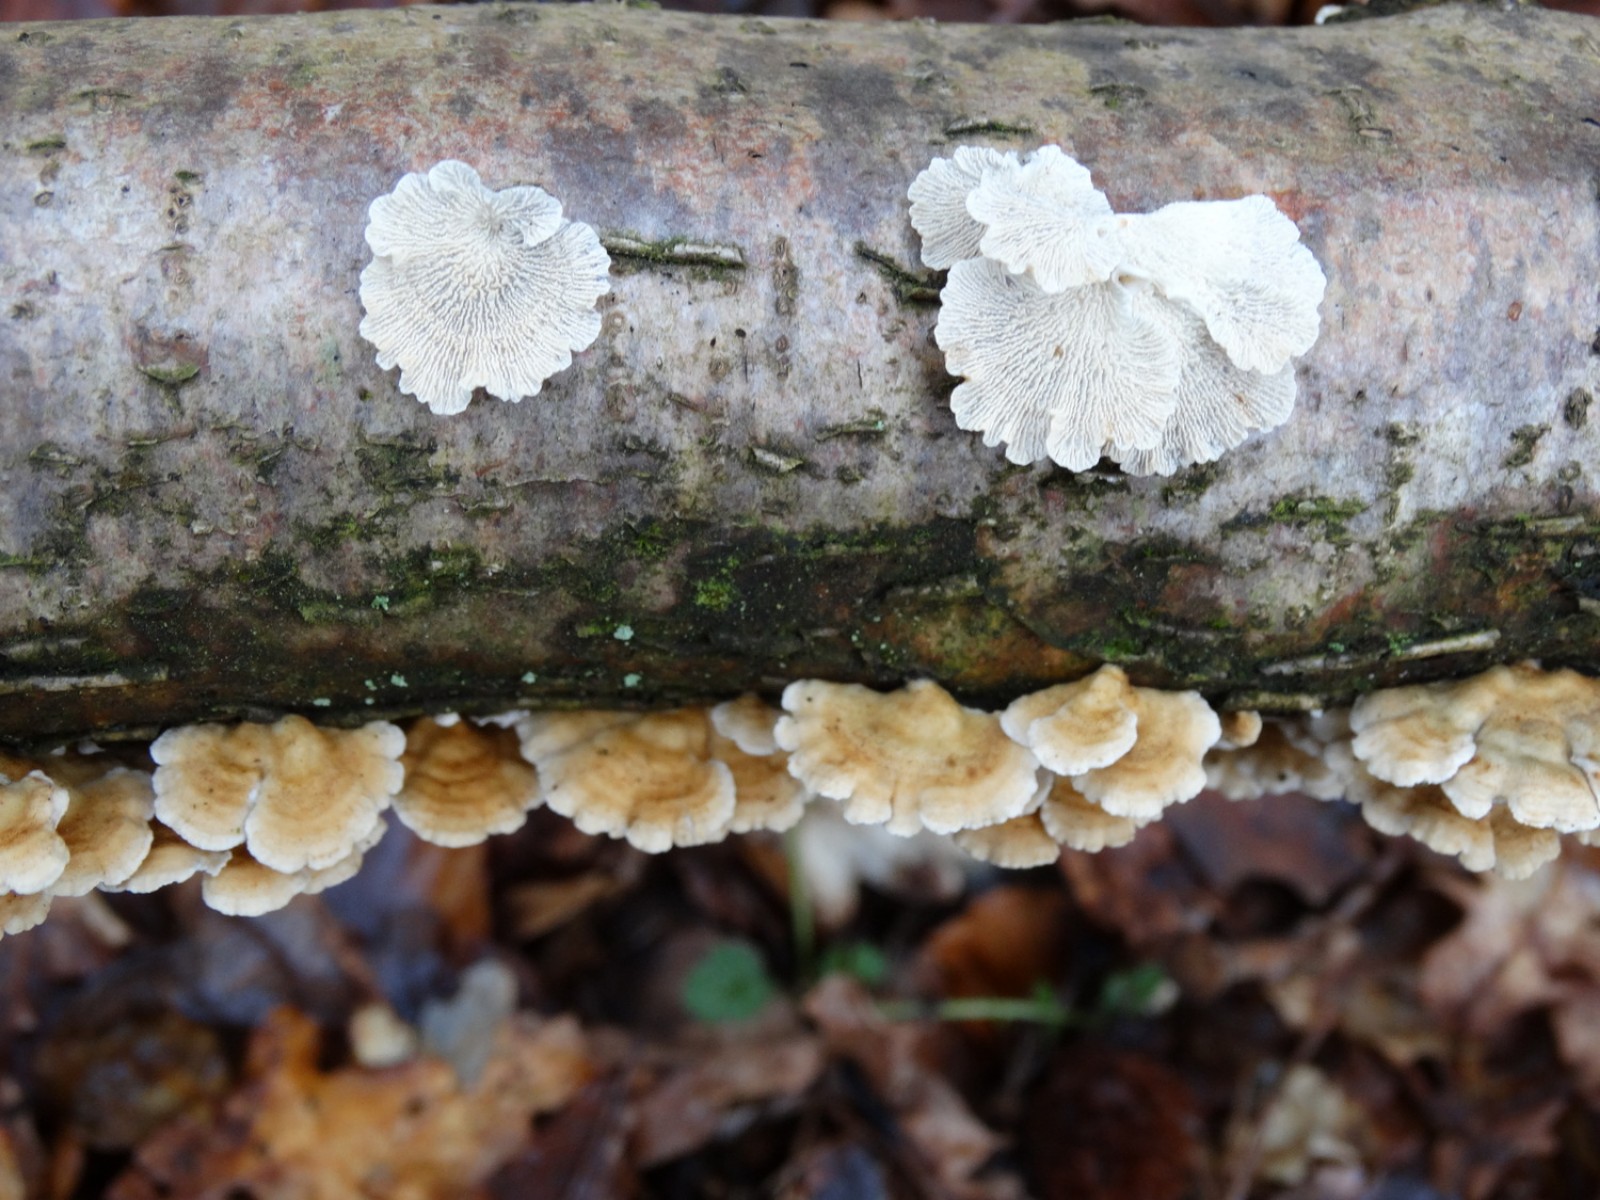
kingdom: Fungi
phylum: Basidiomycota
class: Agaricomycetes
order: Amylocorticiales
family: Amylocorticiaceae
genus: Plicaturopsis
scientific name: Plicaturopsis crispa
